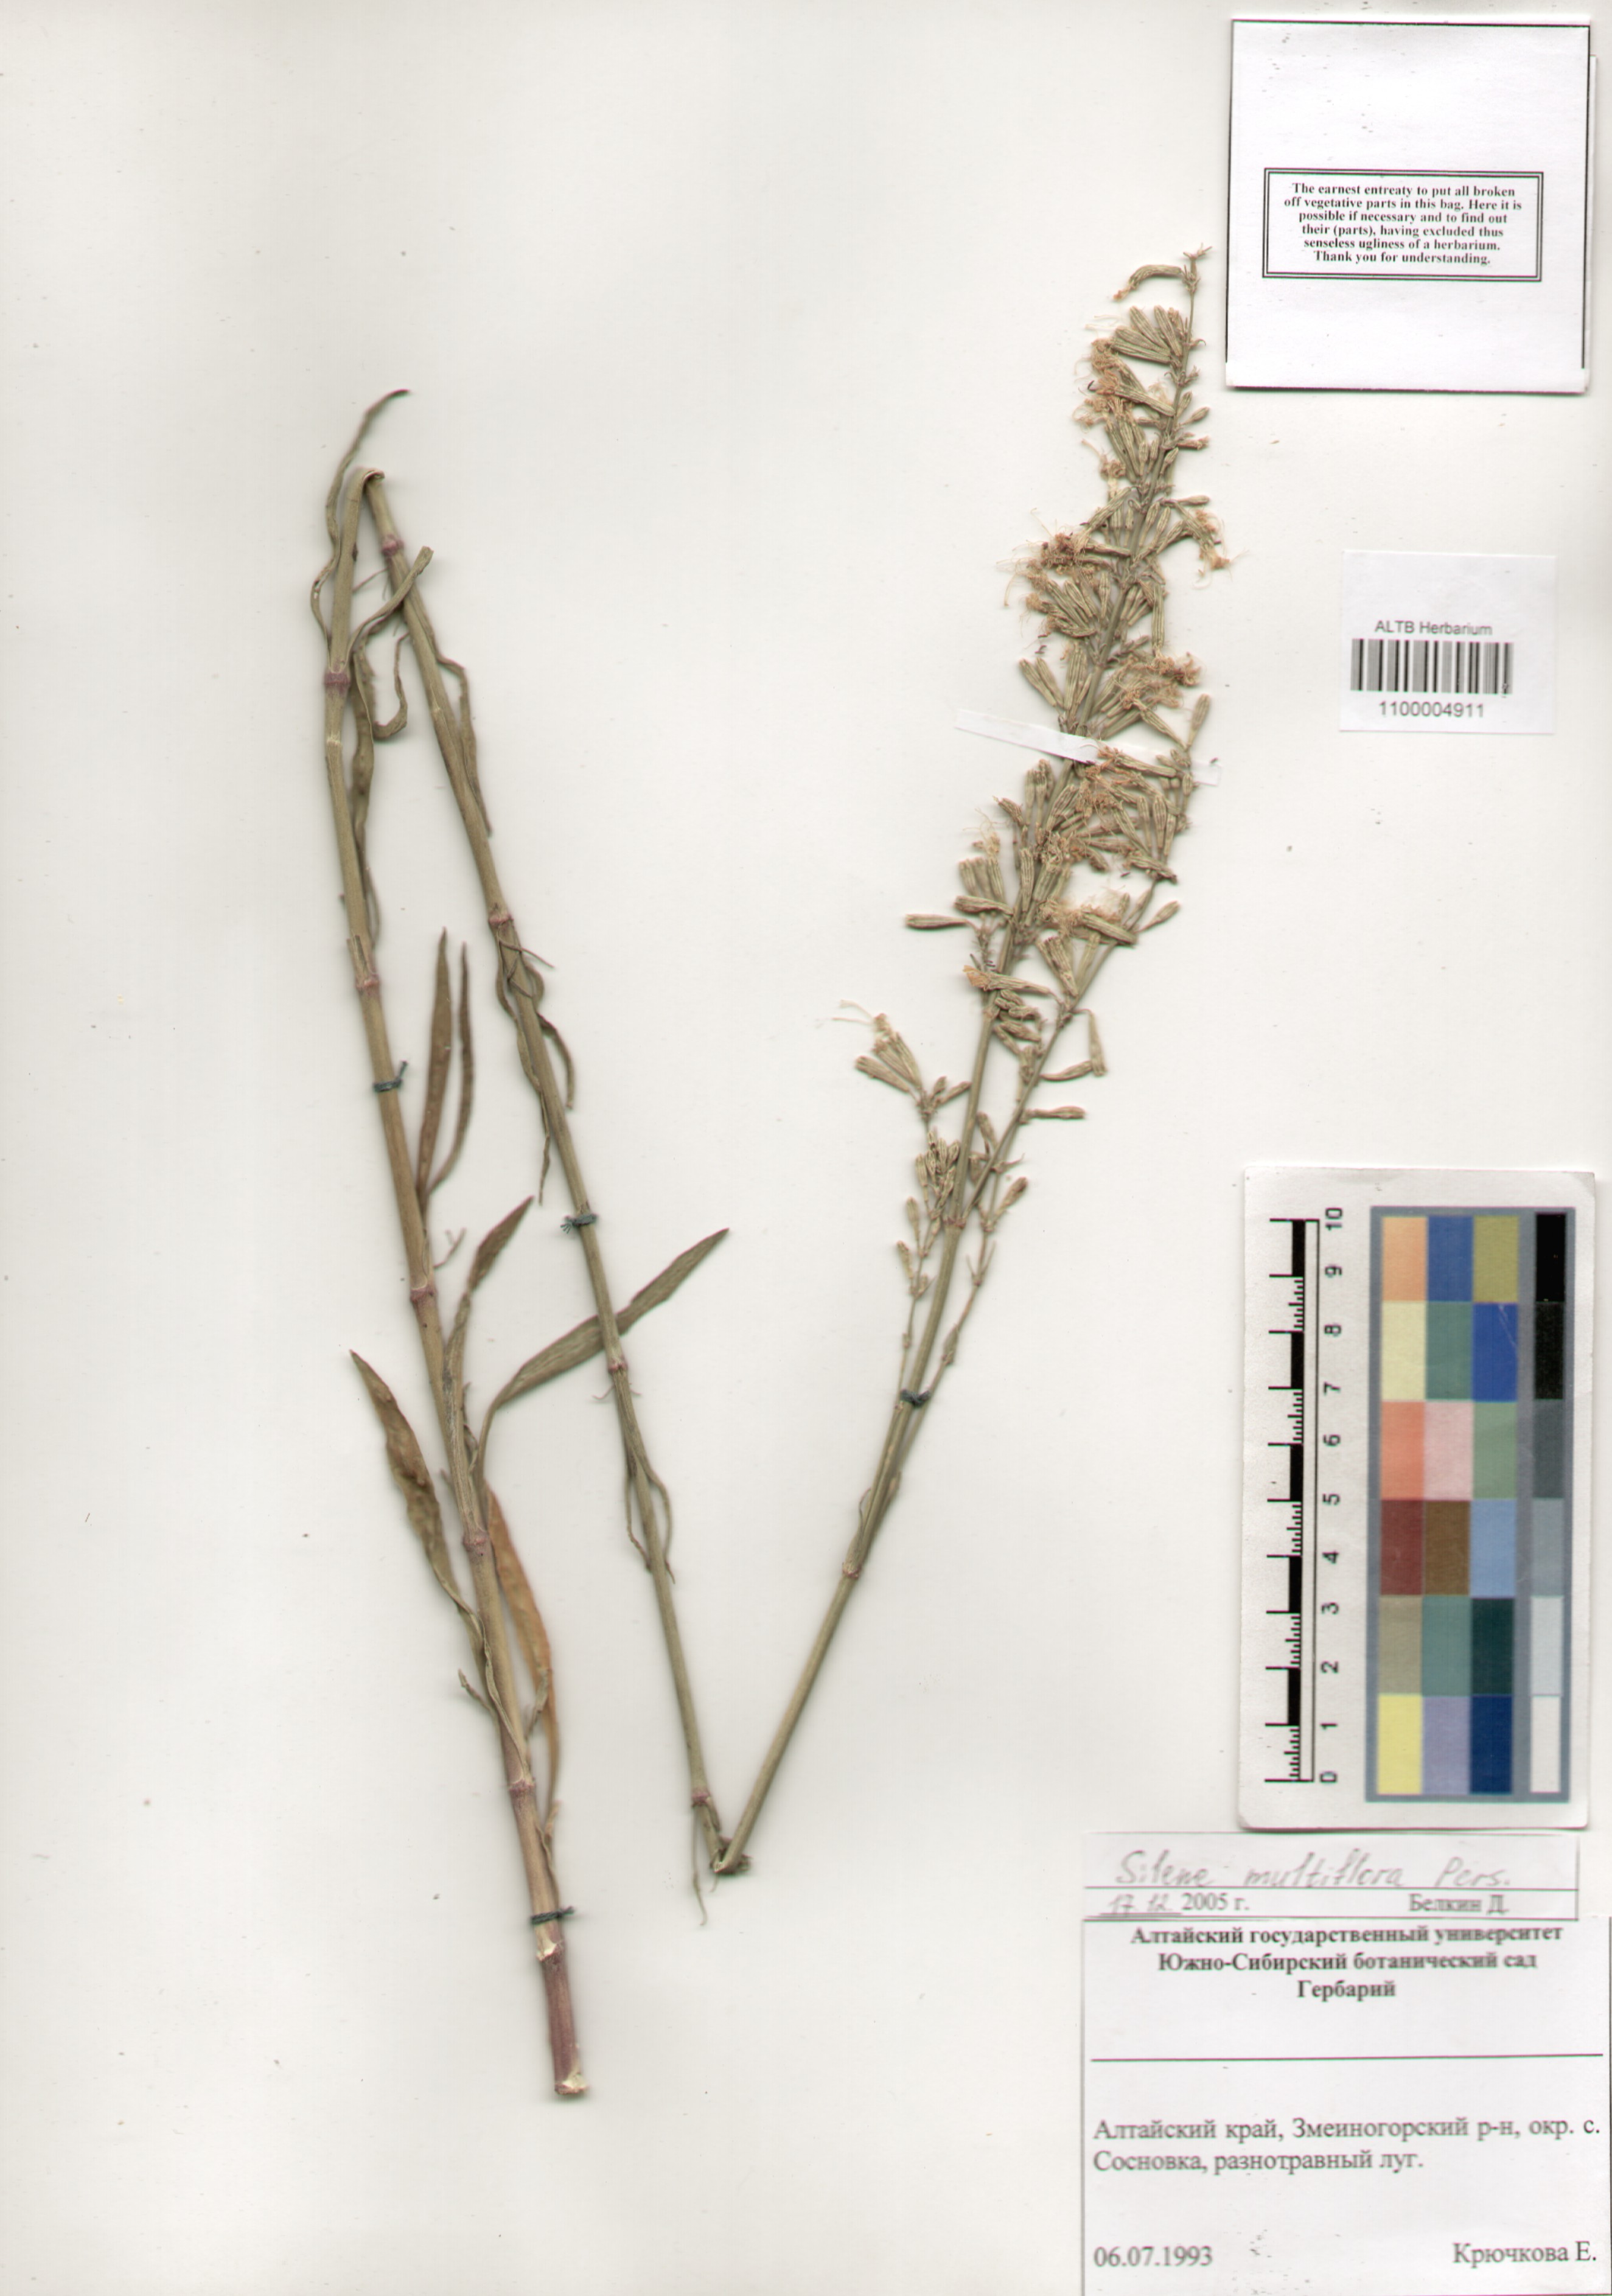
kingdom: Plantae
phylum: Tracheophyta
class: Magnoliopsida
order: Caryophyllales
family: Caryophyllaceae
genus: Silene
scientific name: Silene multiflora
